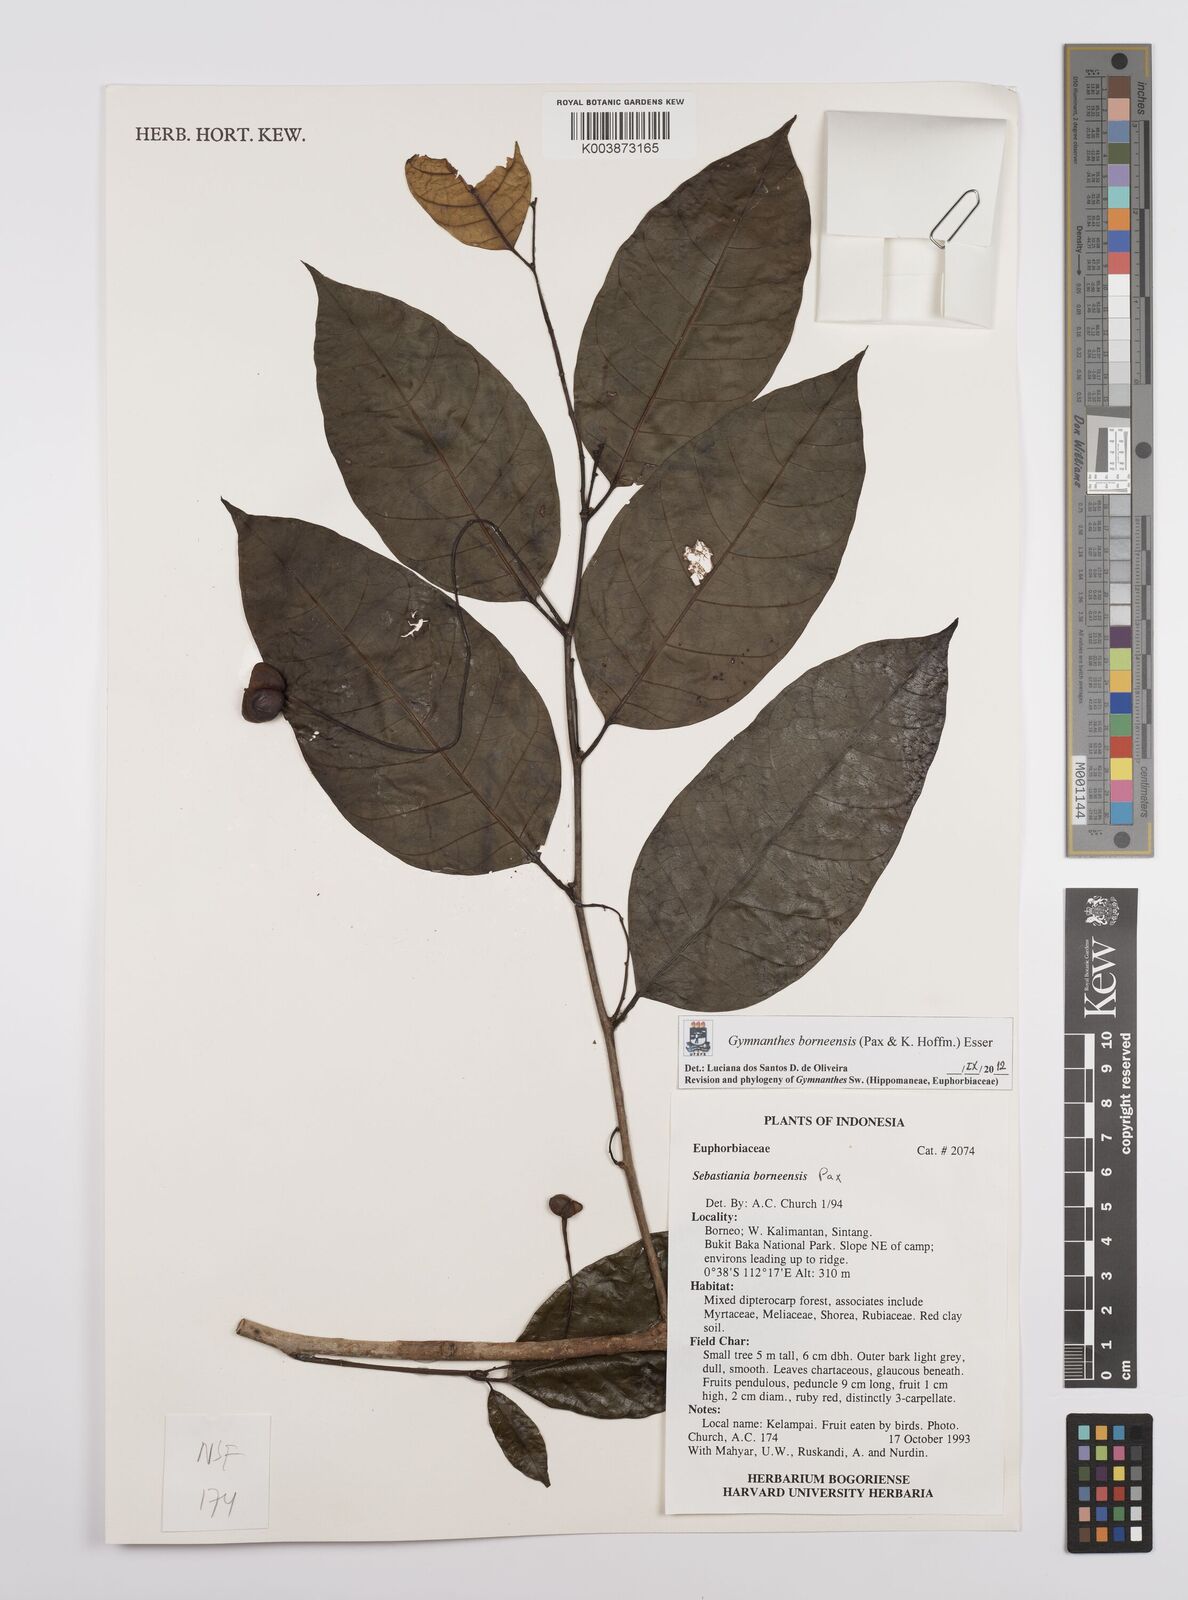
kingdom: Plantae
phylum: Tracheophyta
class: Magnoliopsida
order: Malpighiales
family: Euphorbiaceae
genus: Gymnanthes
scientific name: Gymnanthes borneensis
